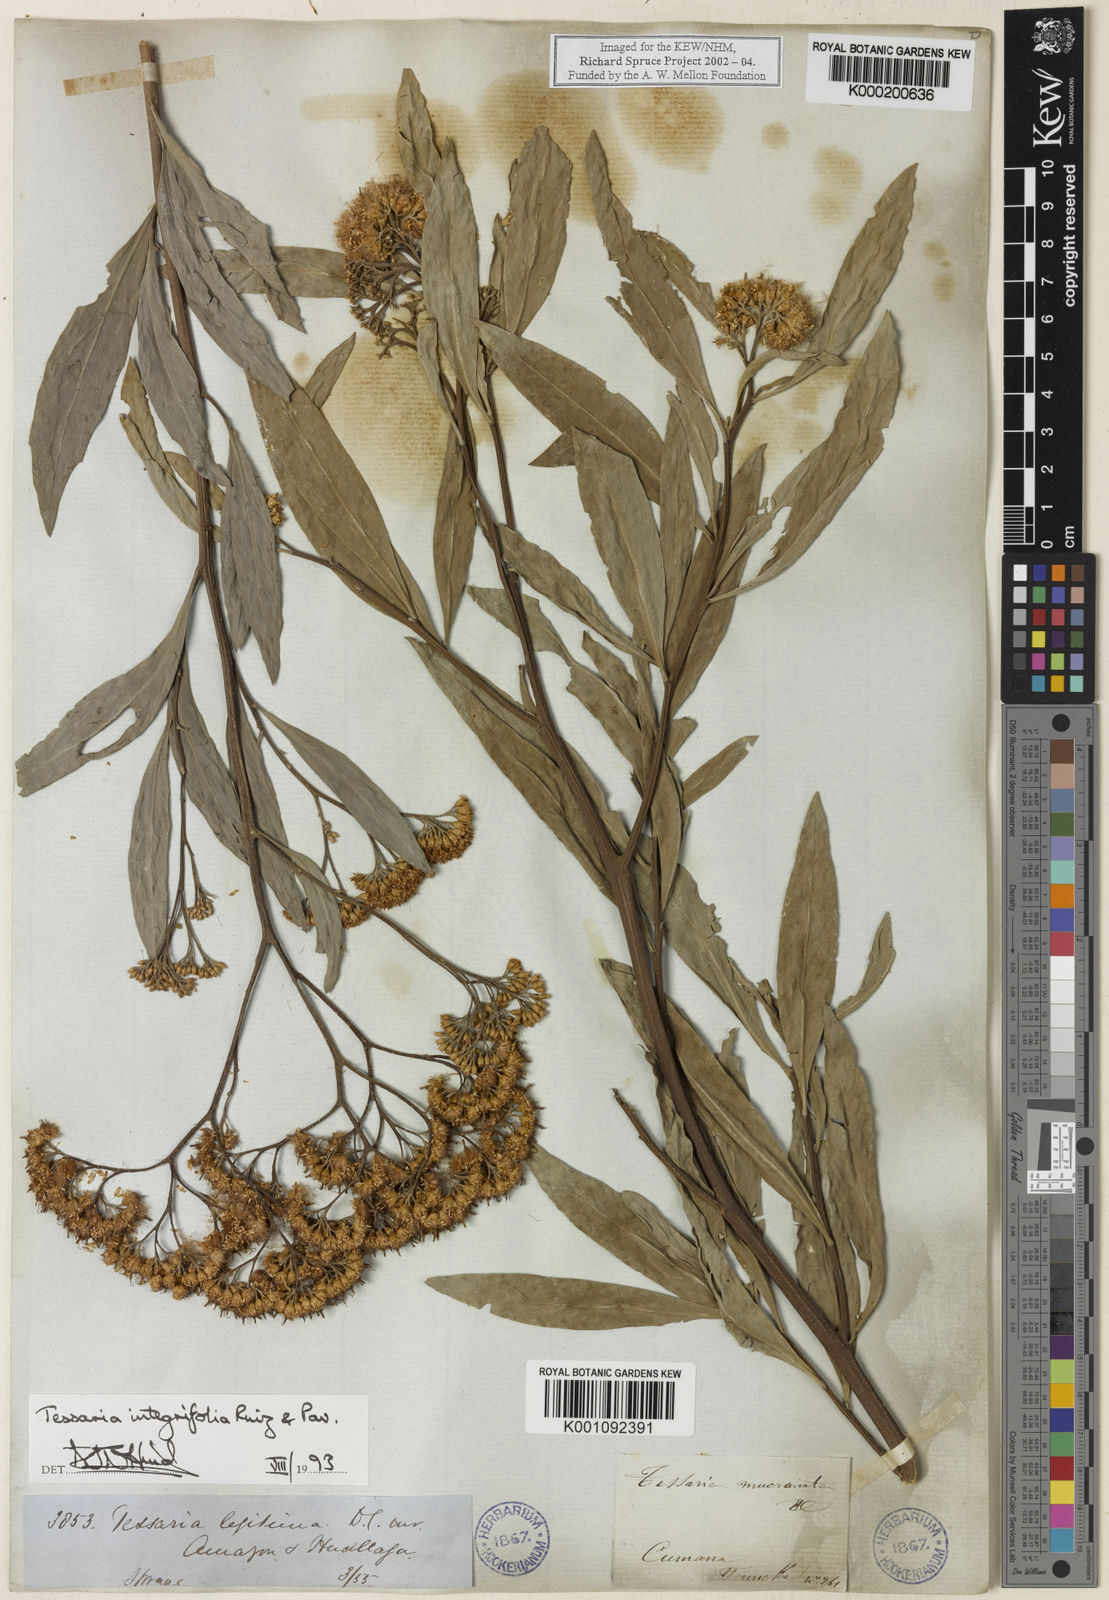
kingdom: Plantae
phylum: Tracheophyta
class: Magnoliopsida
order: Asterales
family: Asteraceae
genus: Tessaria
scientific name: Tessaria integrifolia
